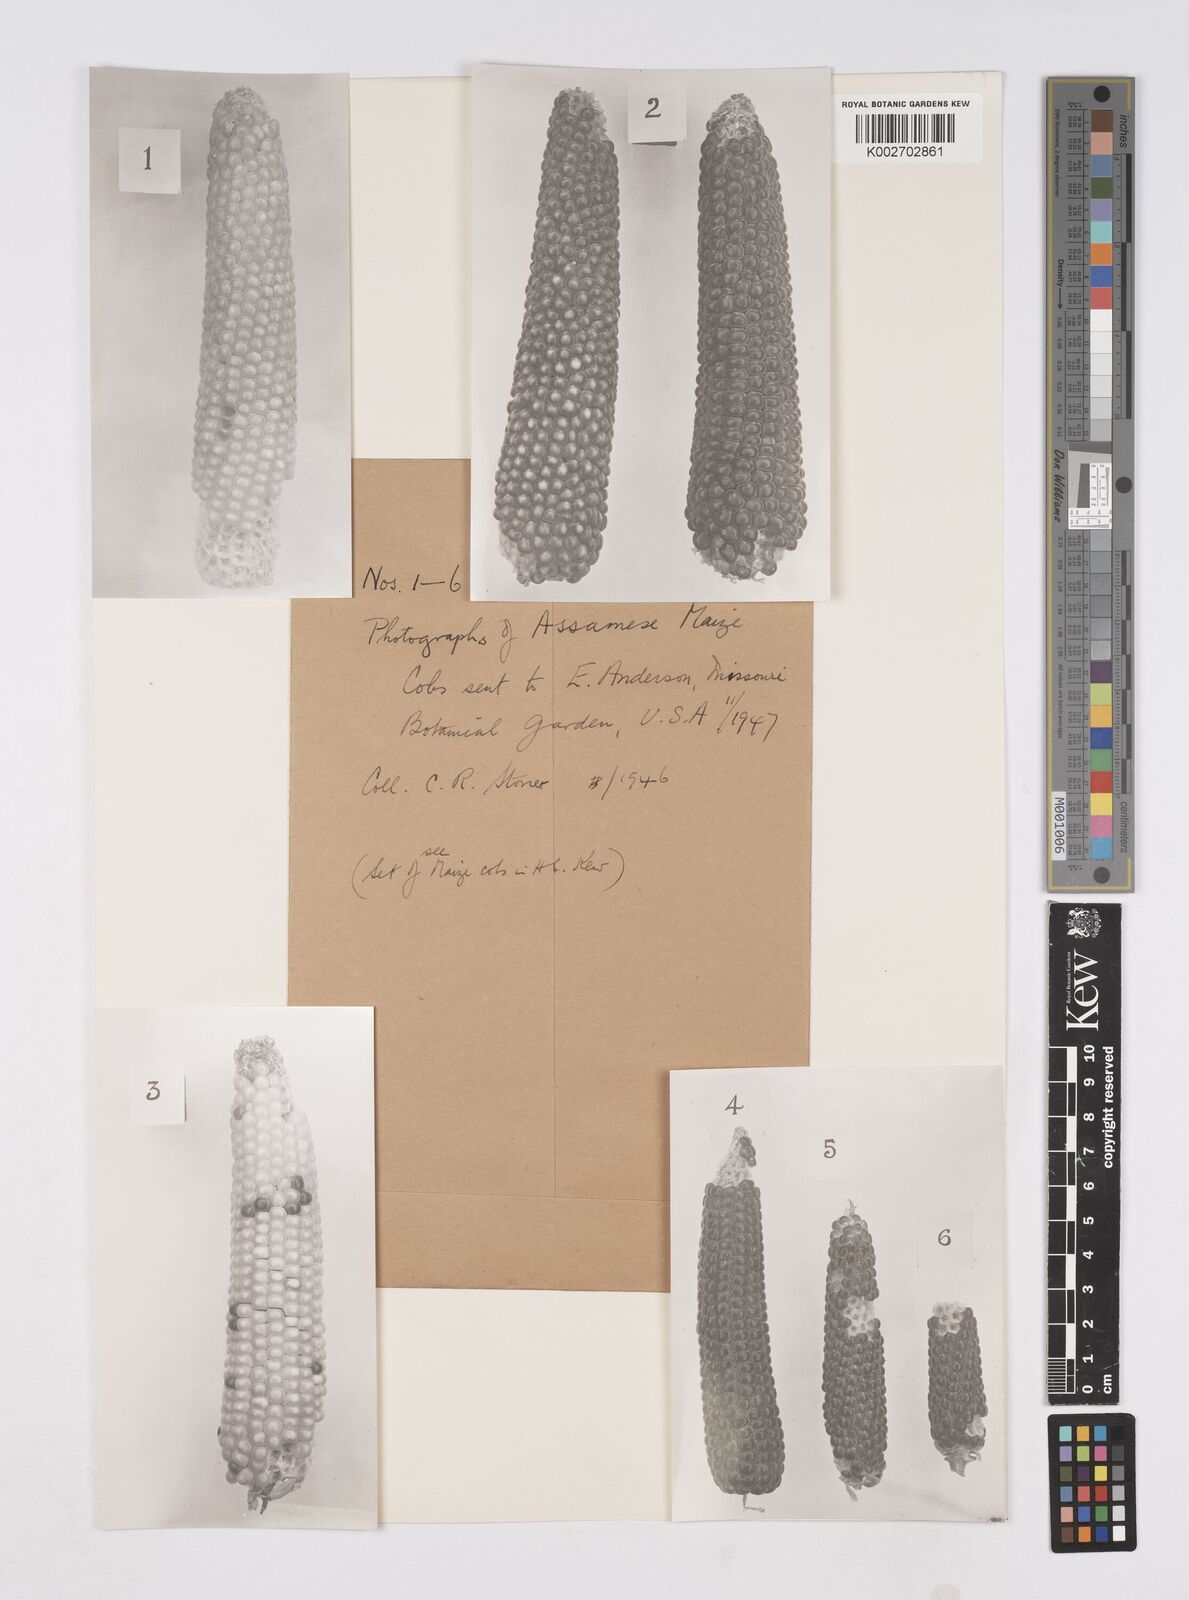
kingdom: Plantae
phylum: Tracheophyta
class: Liliopsida
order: Poales
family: Poaceae
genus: Zea
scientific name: Zea mays
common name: Maize
